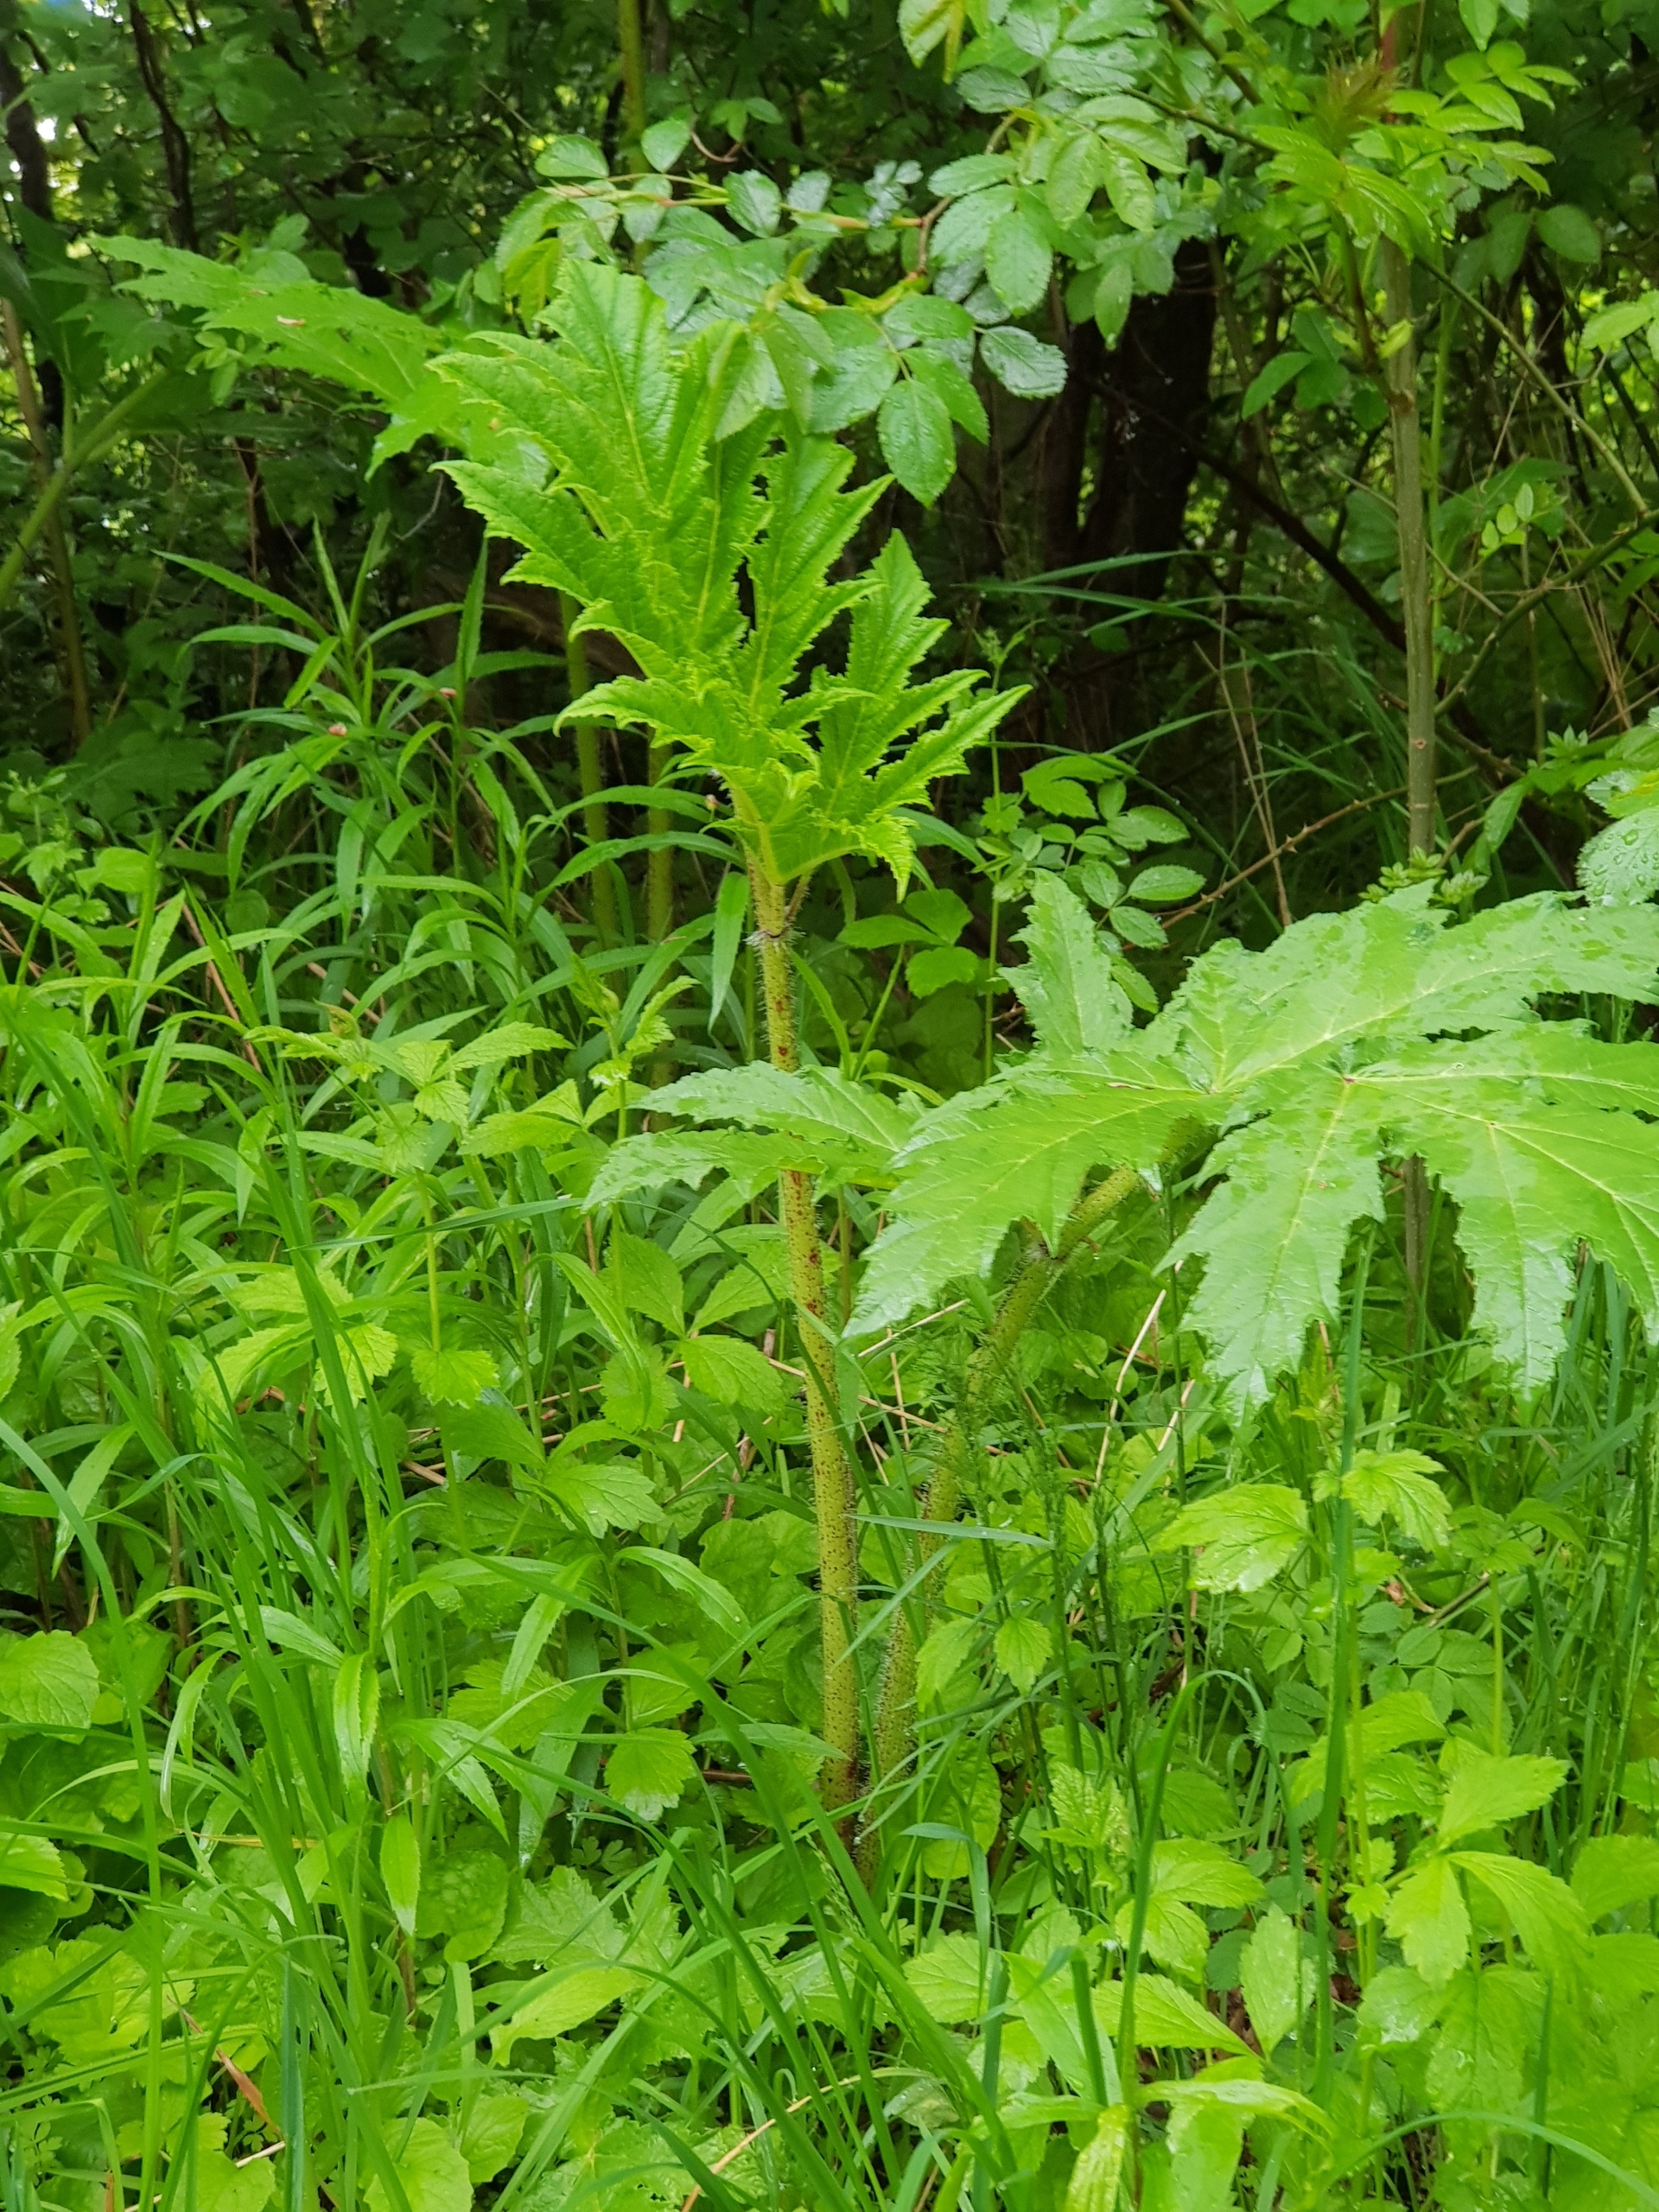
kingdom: Plantae
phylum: Tracheophyta
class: Magnoliopsida
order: Apiales
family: Apiaceae
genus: Heracleum
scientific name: Heracleum mantegazzianum
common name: Kæmpe-bjørneklo
